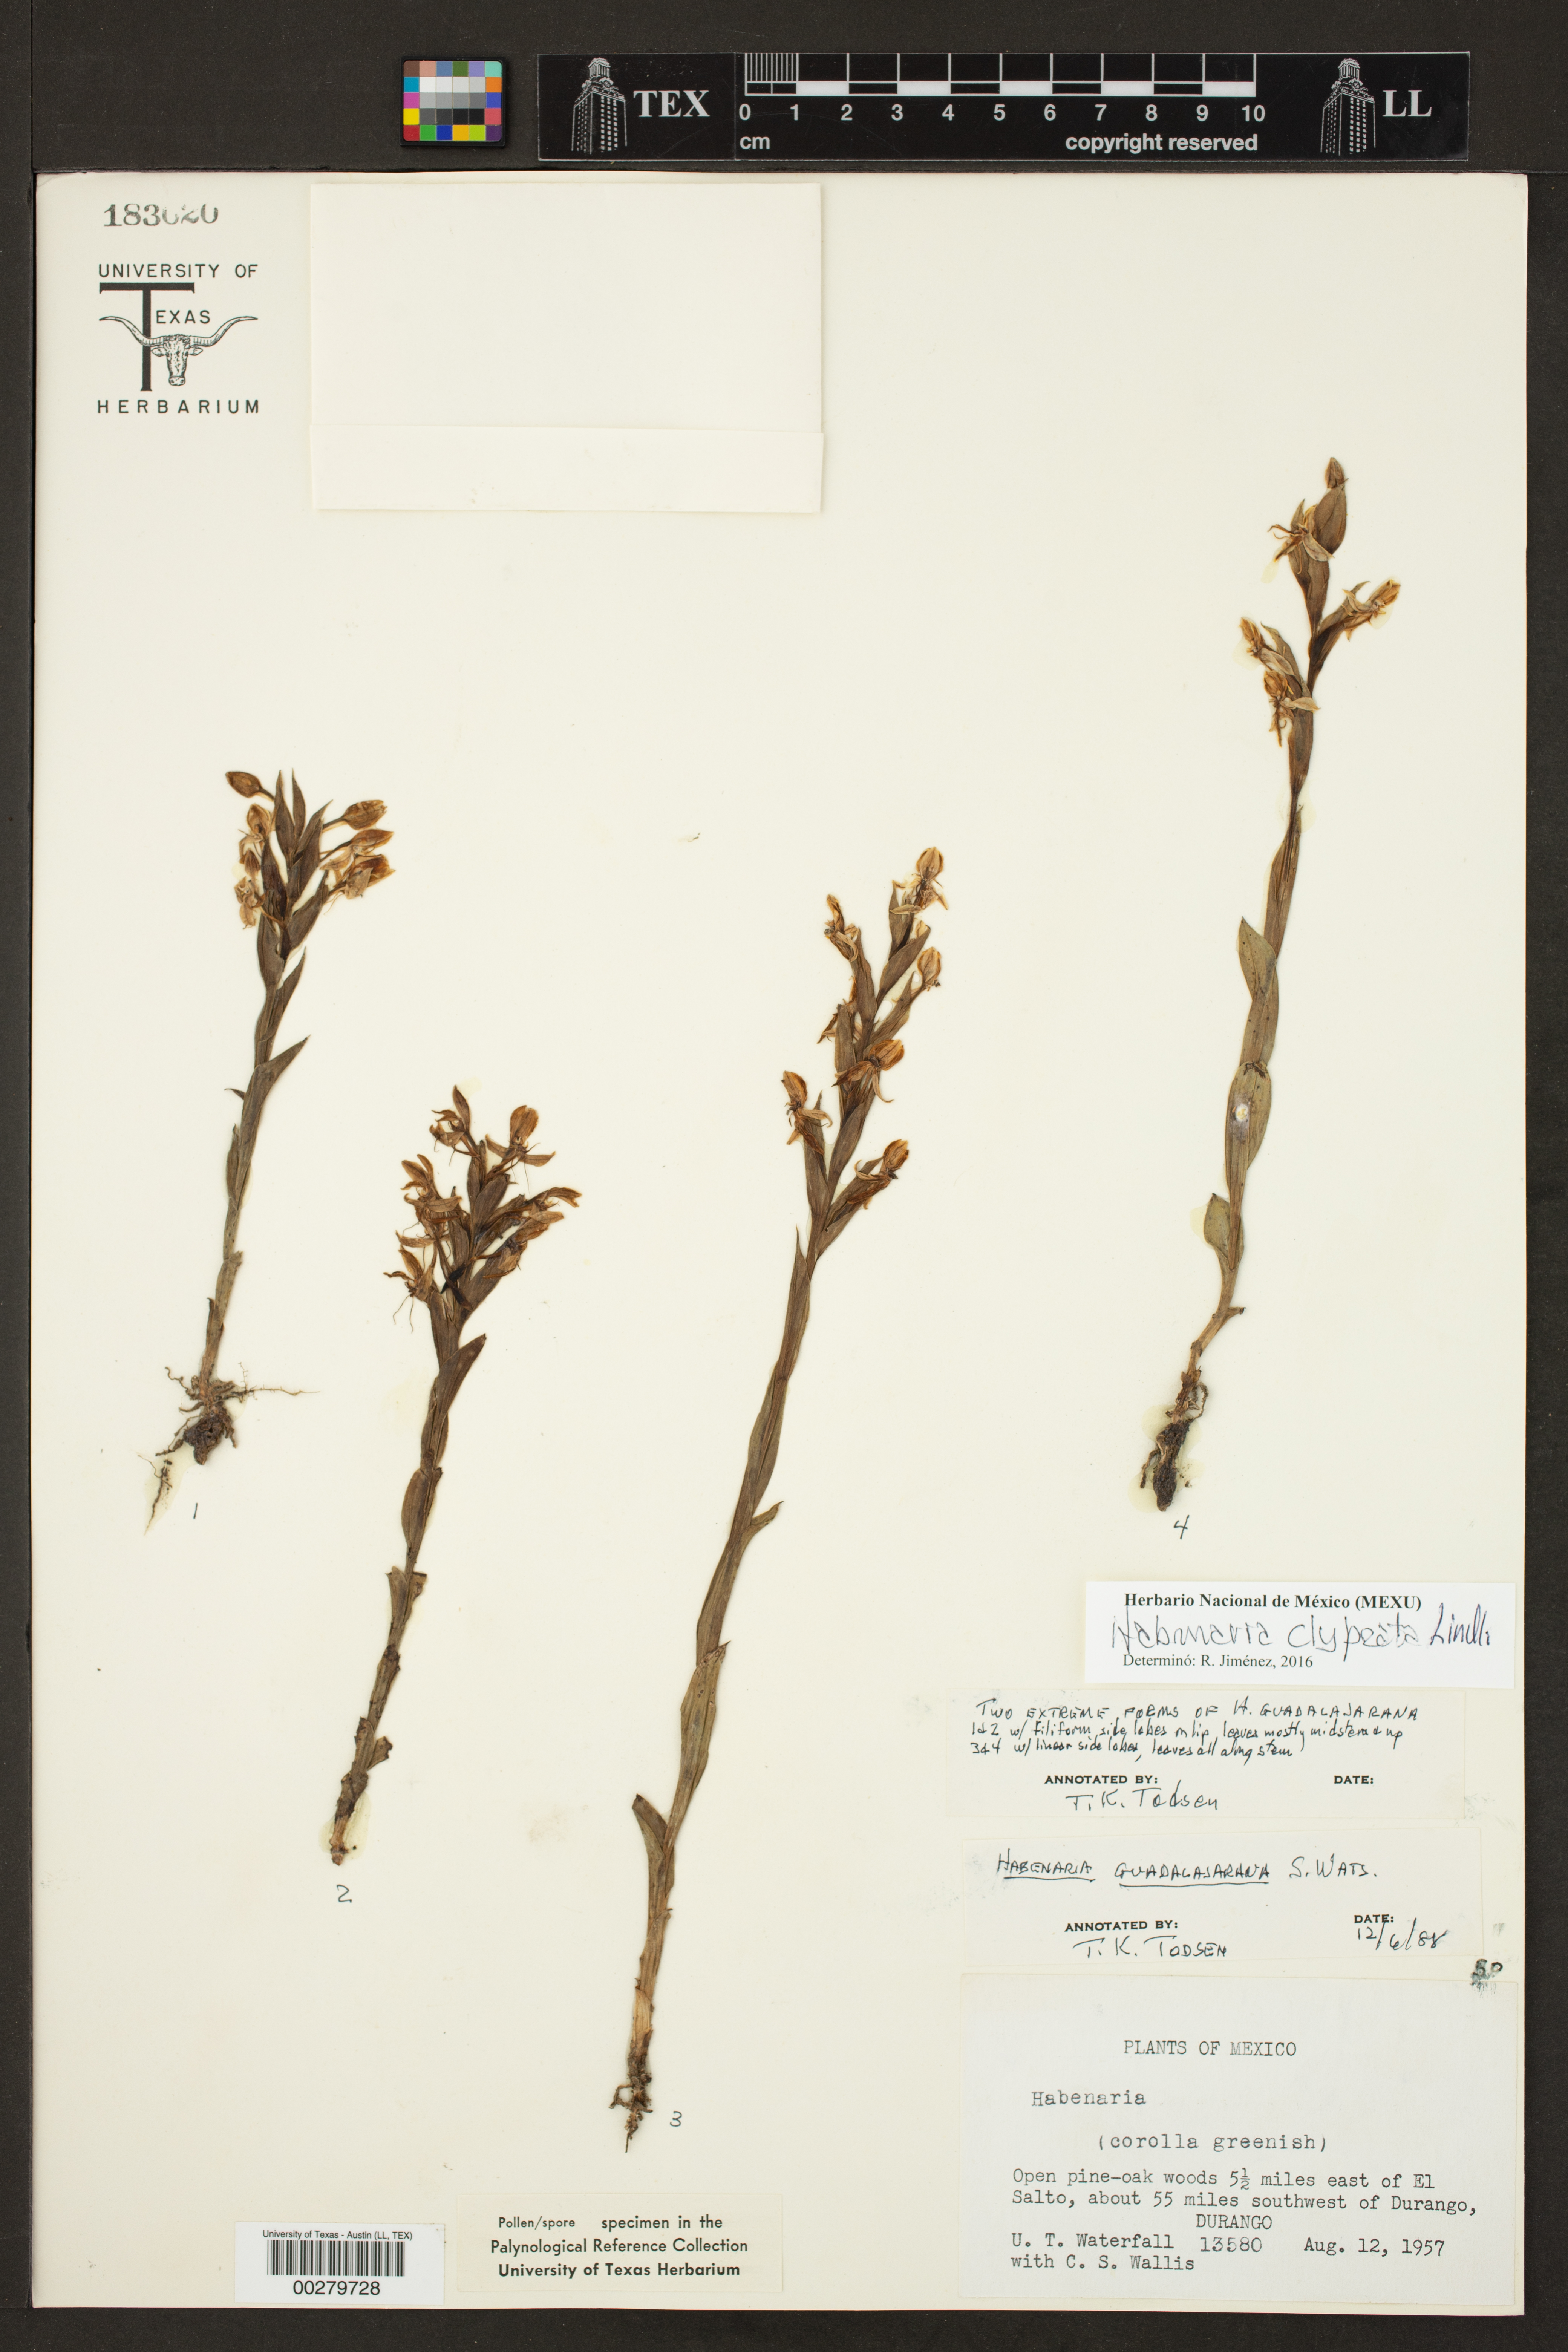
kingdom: Plantae
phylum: Tracheophyta
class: Liliopsida
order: Asparagales
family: Orchidaceae
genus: Habenaria
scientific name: Habenaria clypeata
